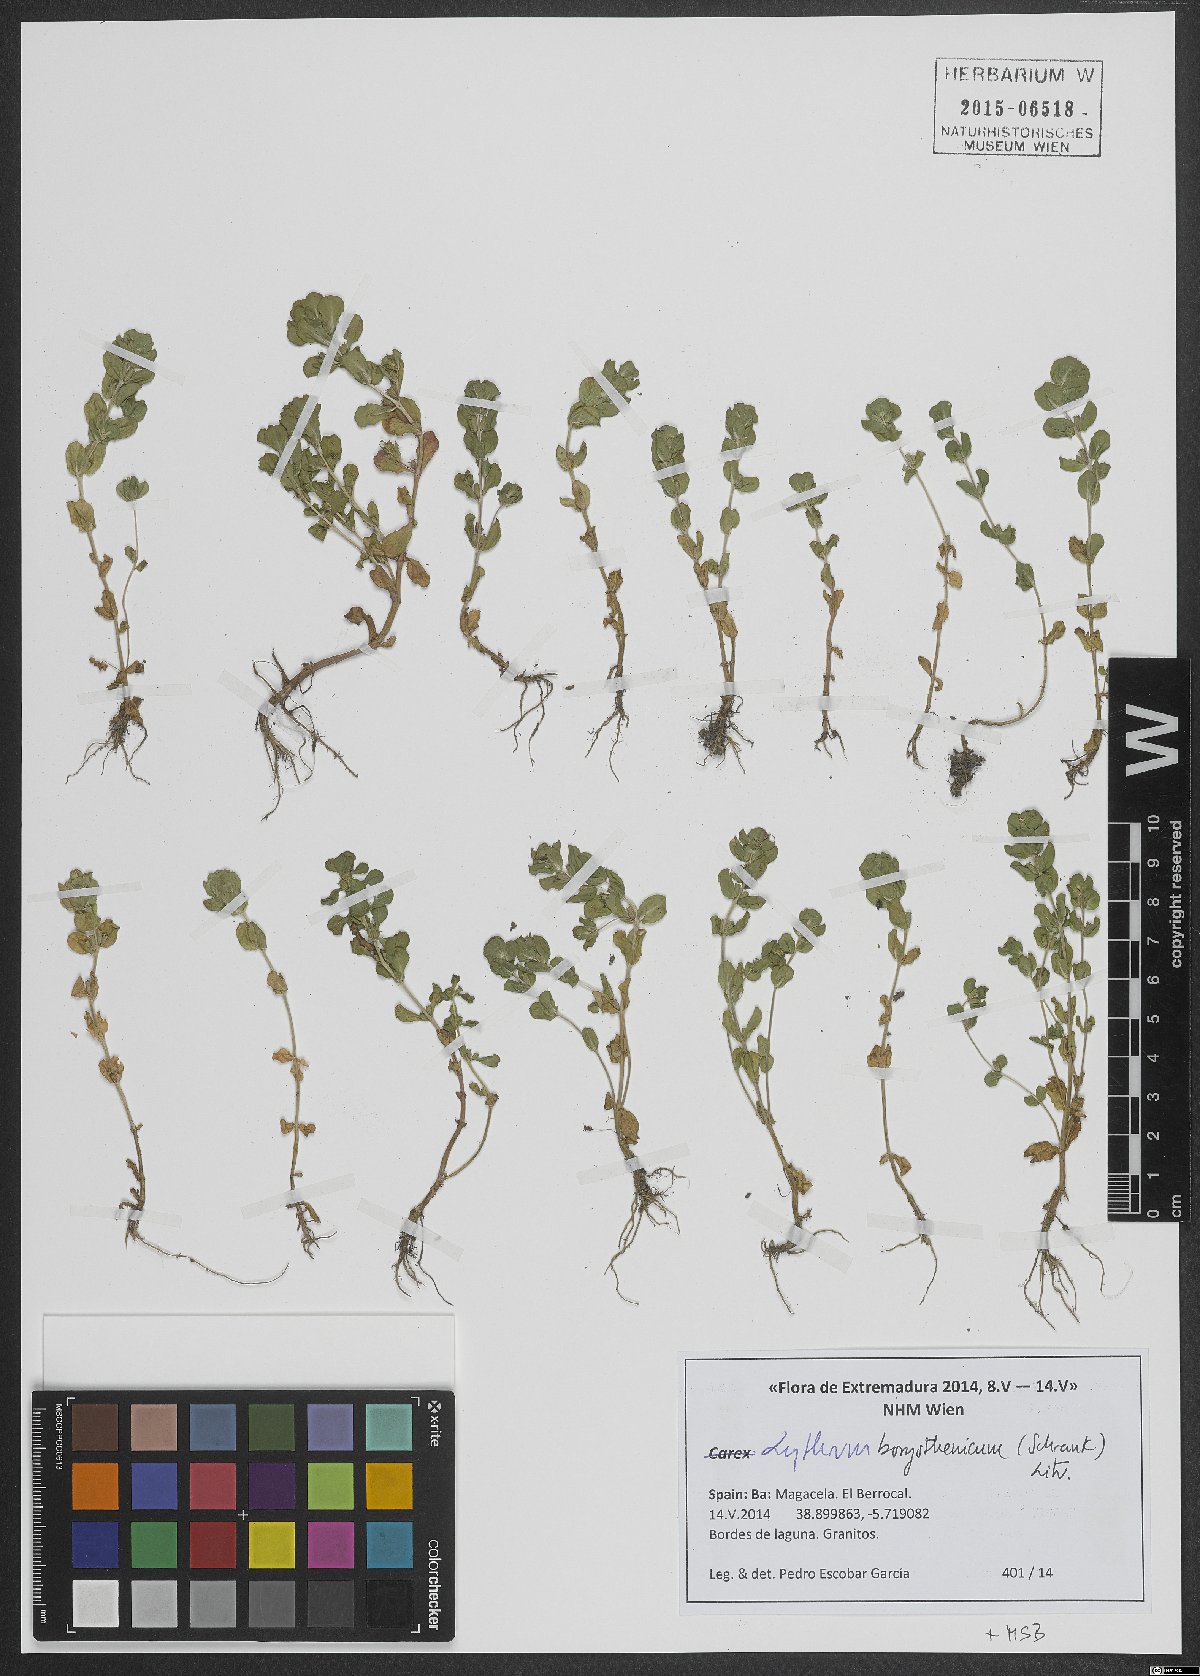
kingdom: Plantae
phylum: Tracheophyta
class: Magnoliopsida
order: Myrtales
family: Lythraceae
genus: Lythrum
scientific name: Lythrum borysthenicum
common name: Loosestrife
